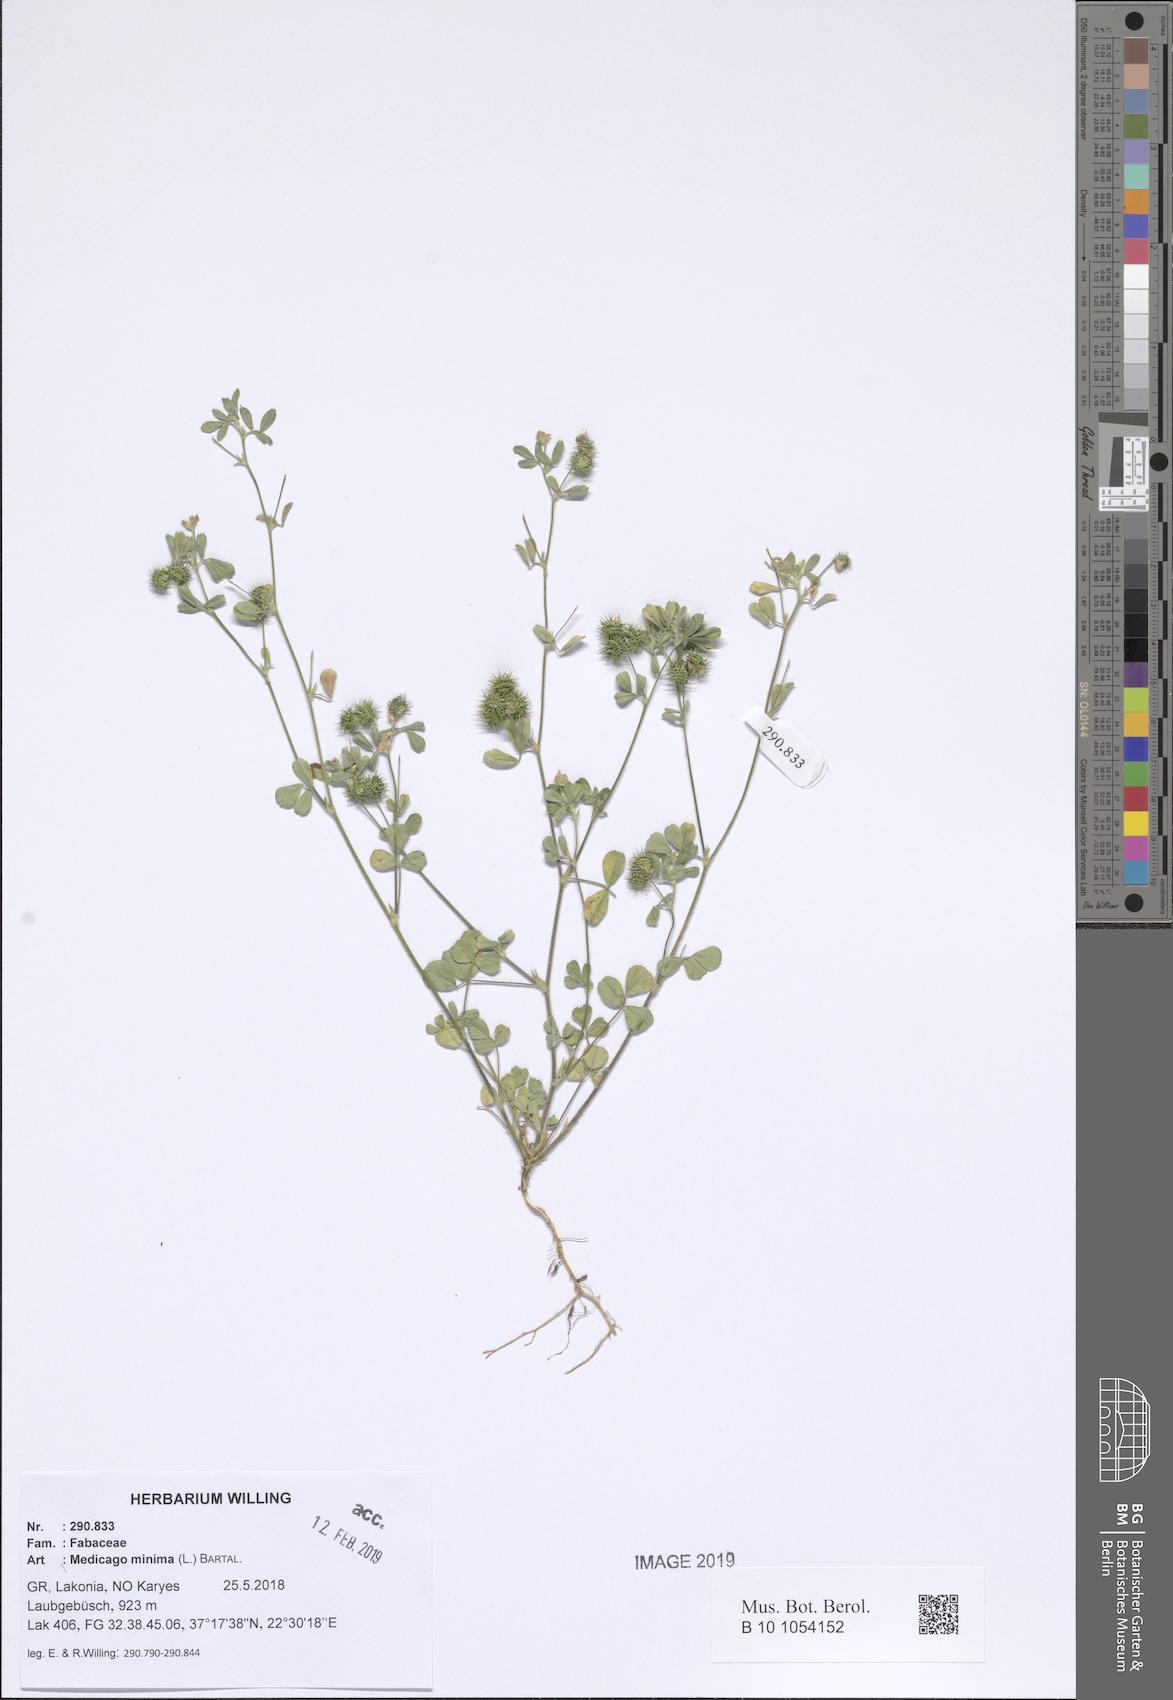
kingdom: Plantae
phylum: Tracheophyta
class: Magnoliopsida
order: Fabales
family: Fabaceae
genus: Medicago
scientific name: Medicago minima
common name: Little bur-clover
